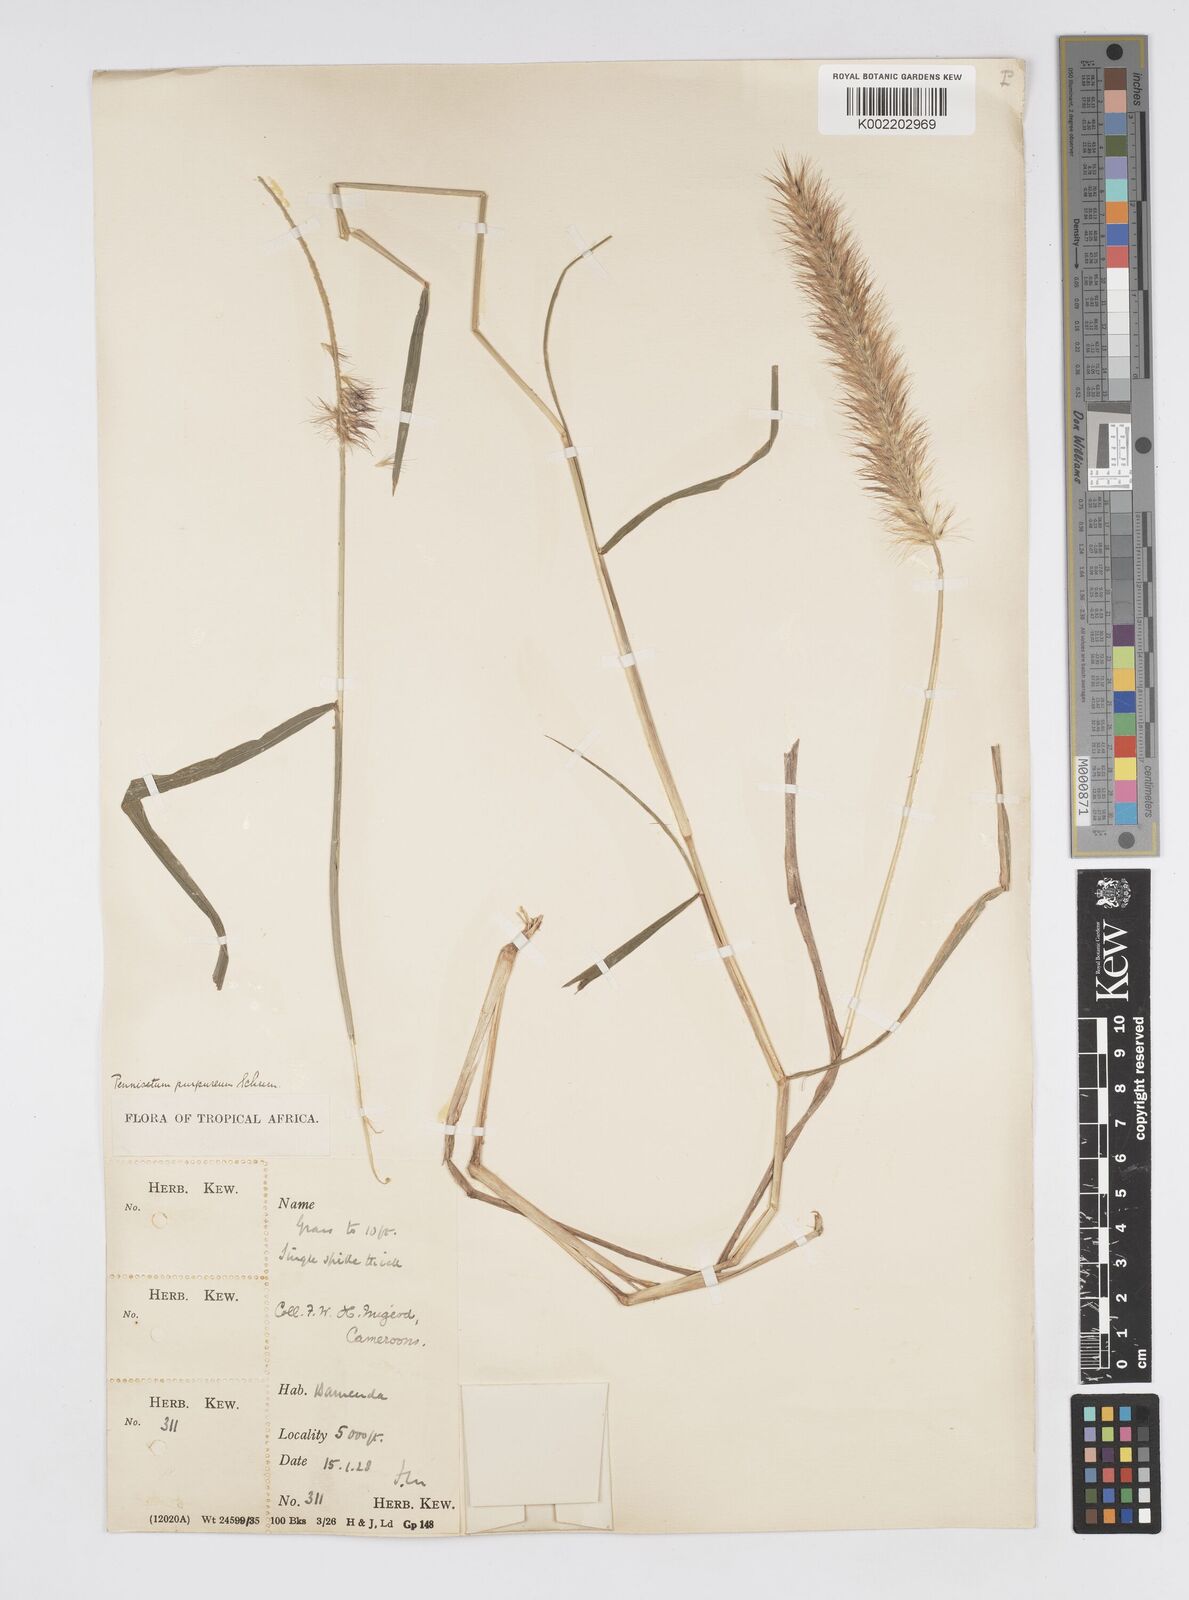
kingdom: Plantae
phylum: Tracheophyta
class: Liliopsida
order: Poales
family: Poaceae
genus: Cenchrus
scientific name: Cenchrus purpureus
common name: Elephant grass
